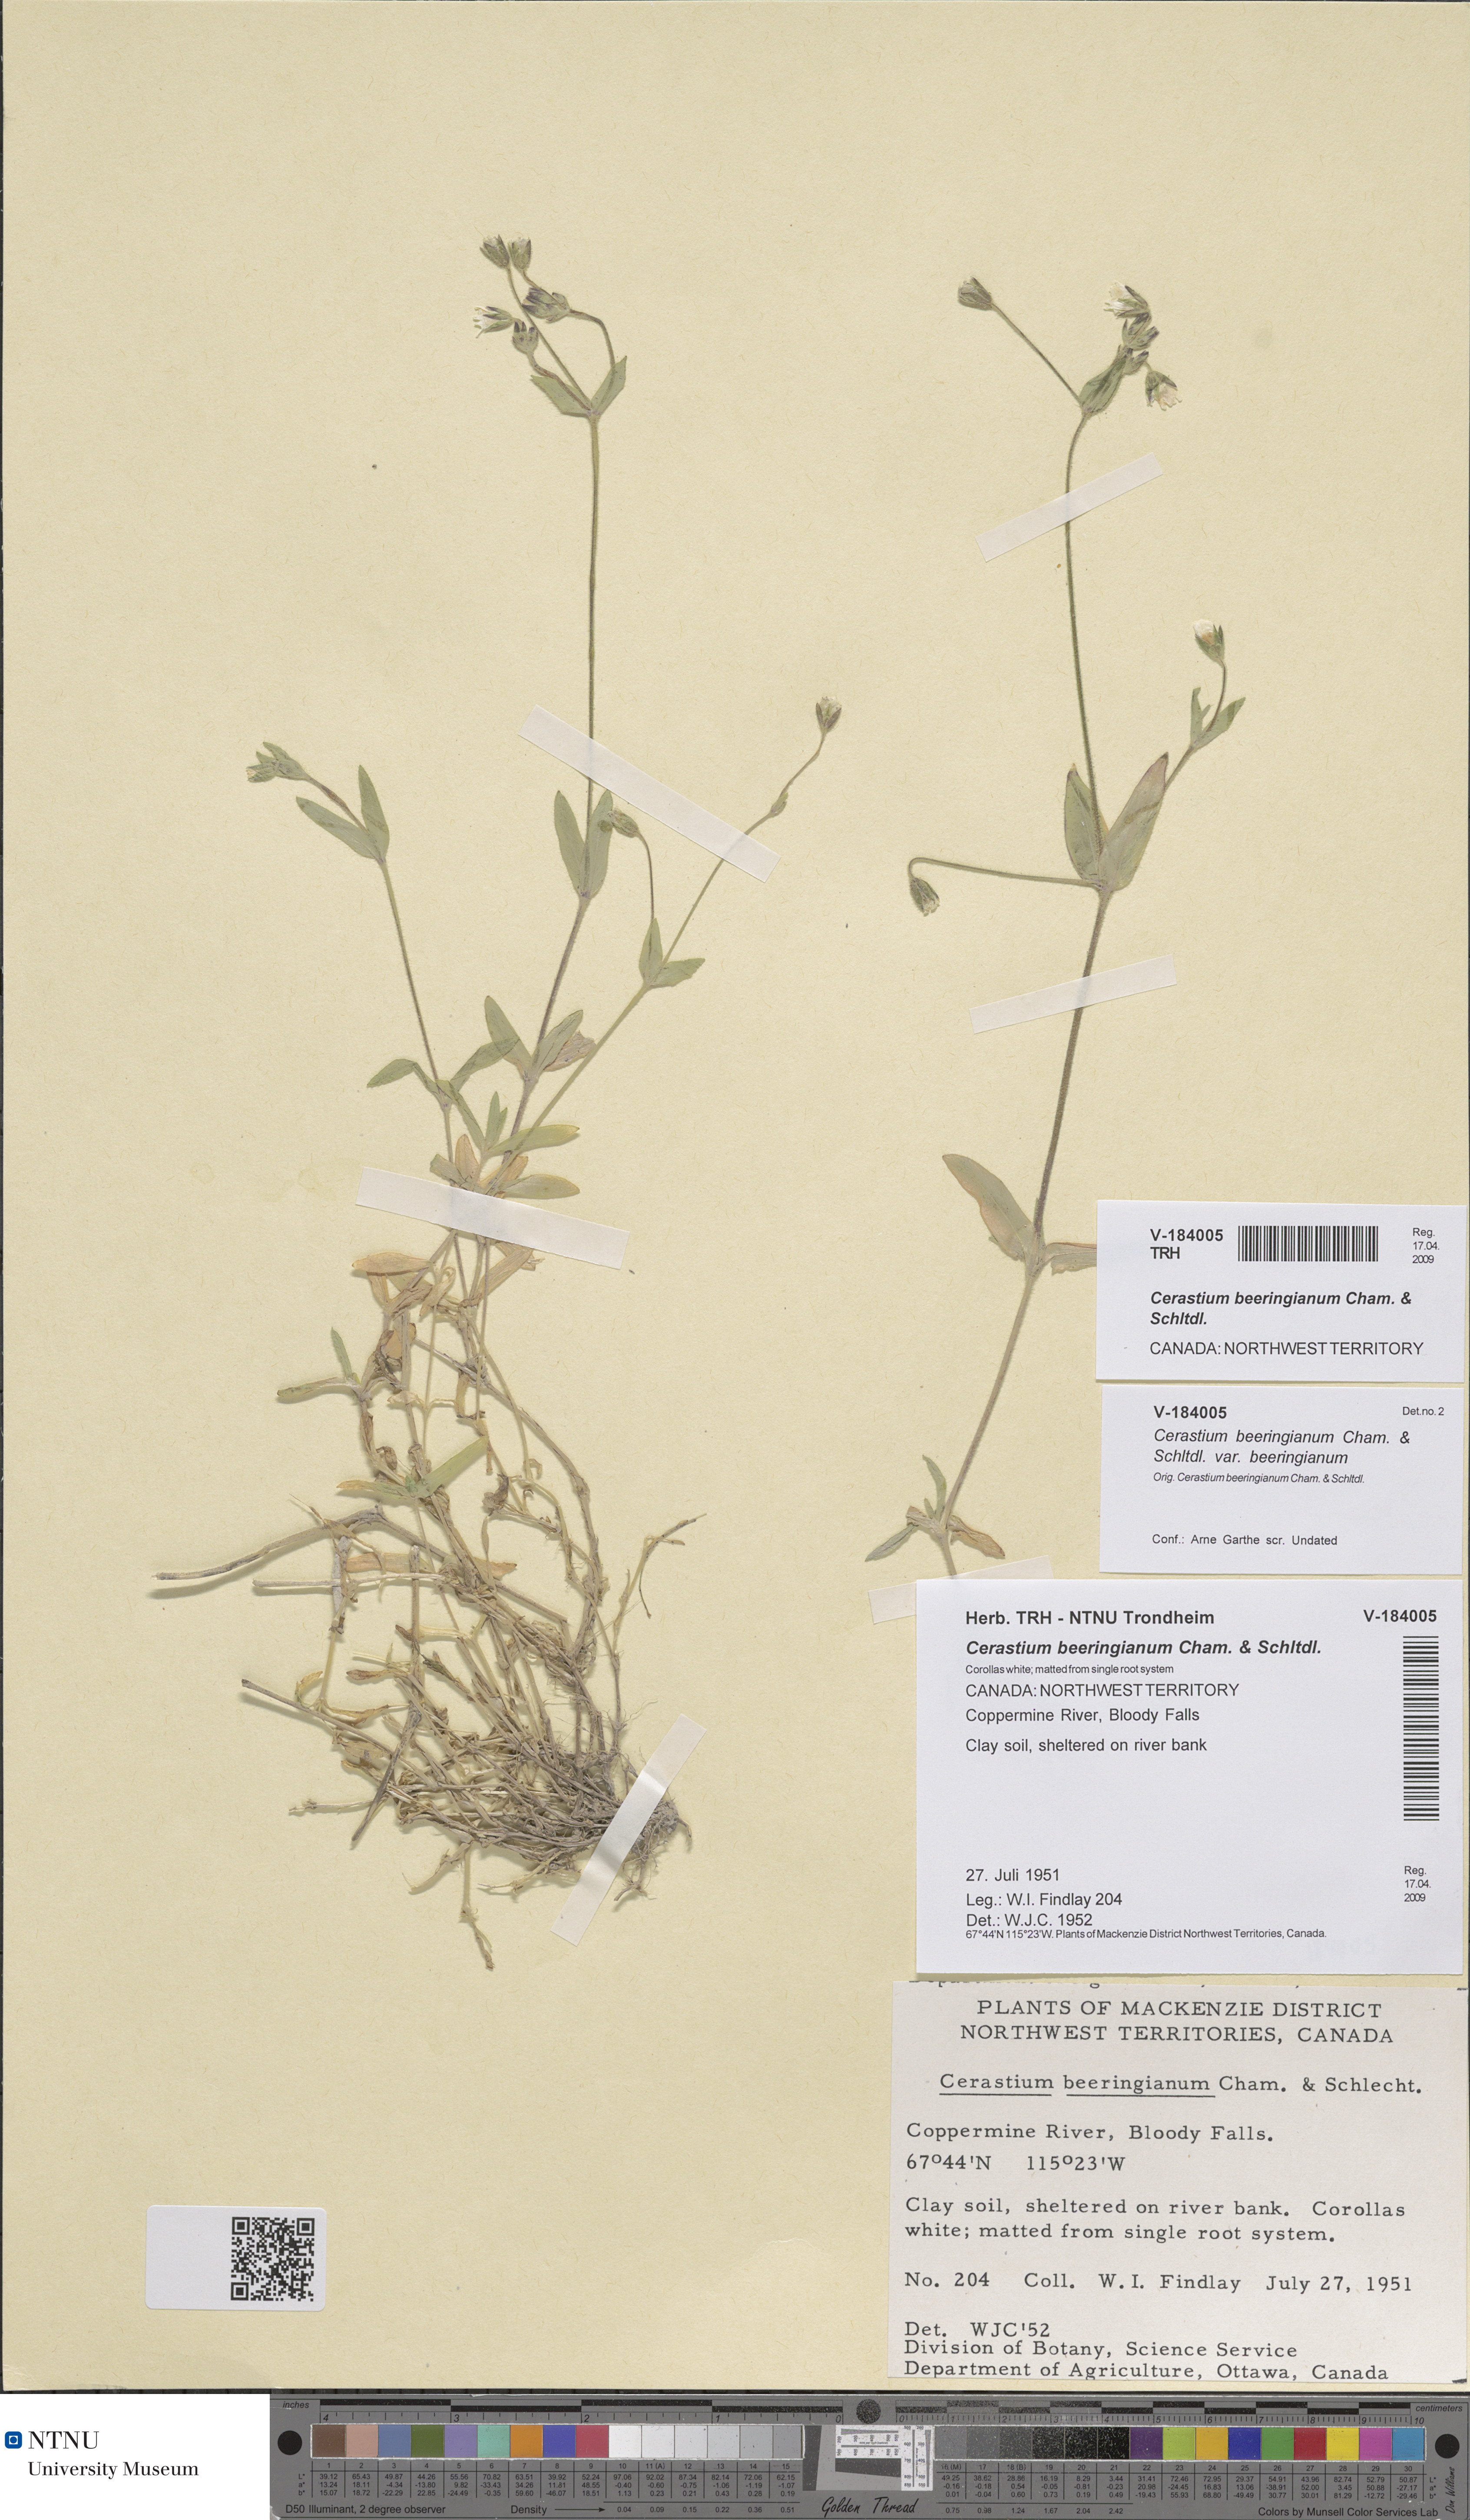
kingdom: Plantae
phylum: Tracheophyta
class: Magnoliopsida
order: Caryophyllales
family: Caryophyllaceae
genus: Cerastium
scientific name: Cerastium beeringianum
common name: Bering mouse-ear chickweed
